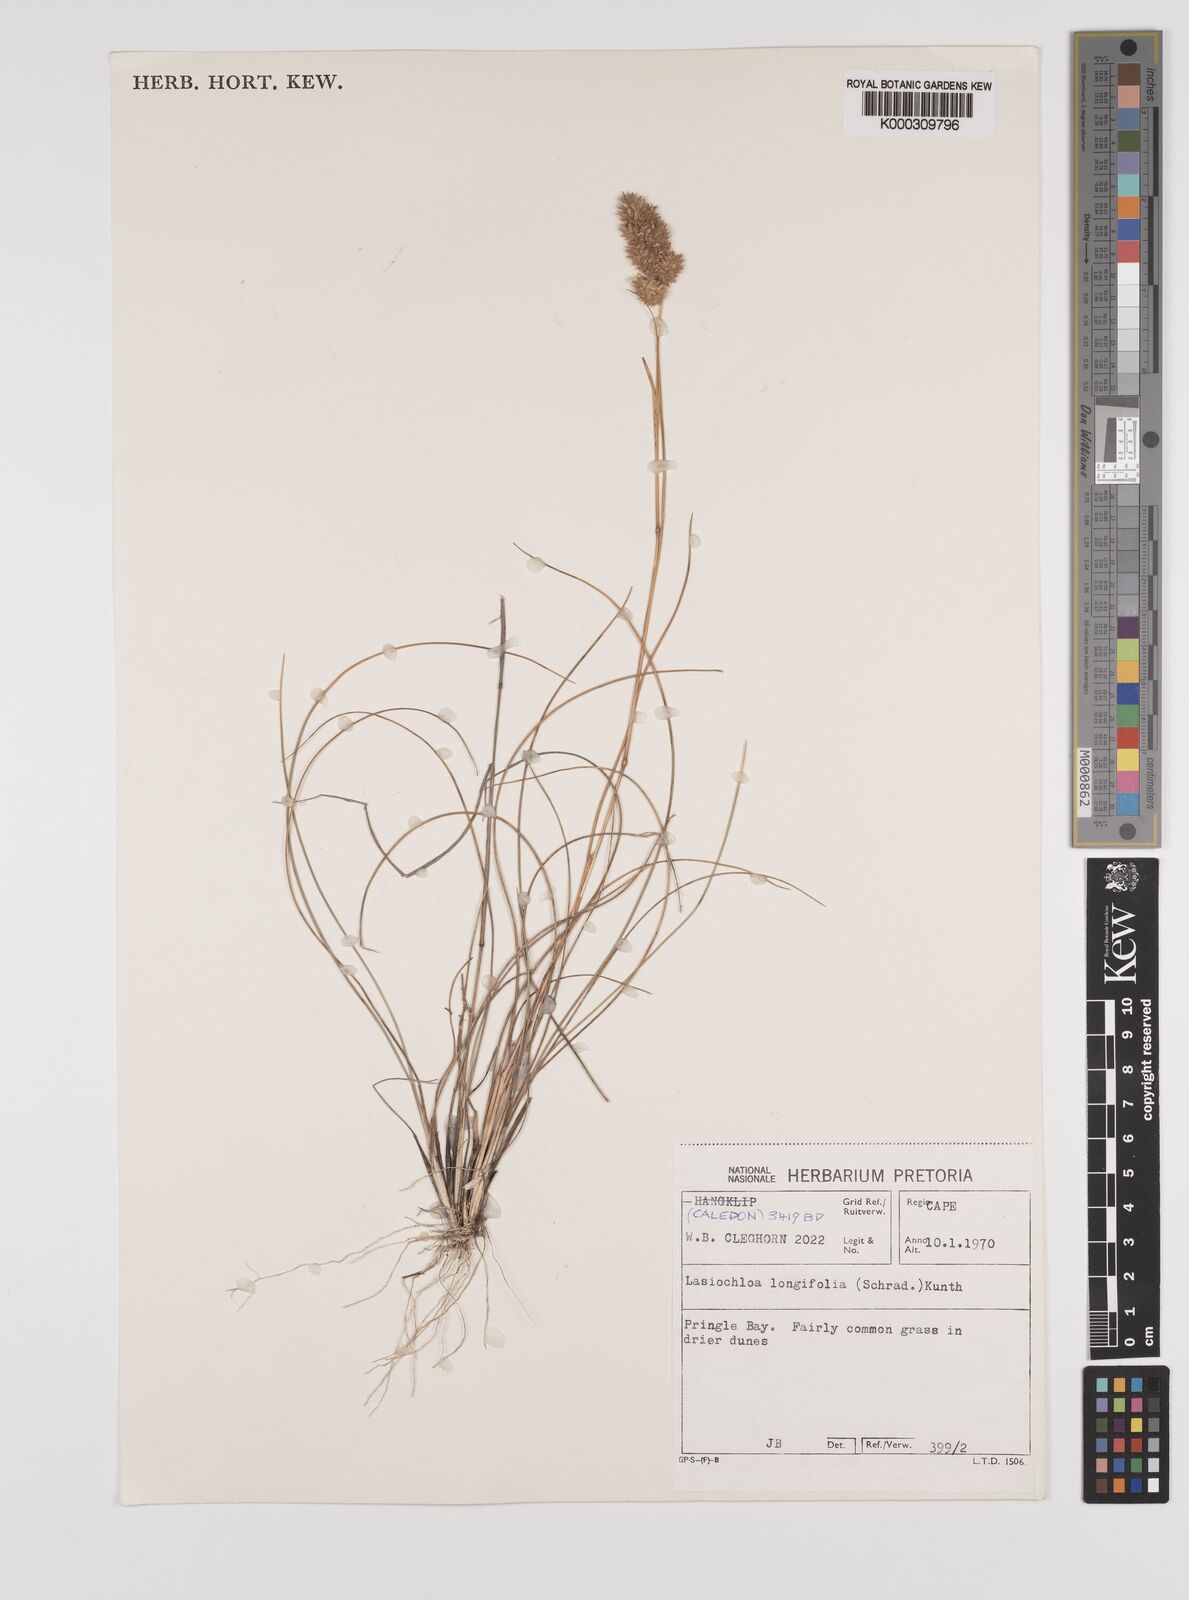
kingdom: Plantae
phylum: Tracheophyta
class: Liliopsida
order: Poales
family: Poaceae
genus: Tribolium
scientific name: Tribolium hispidum
